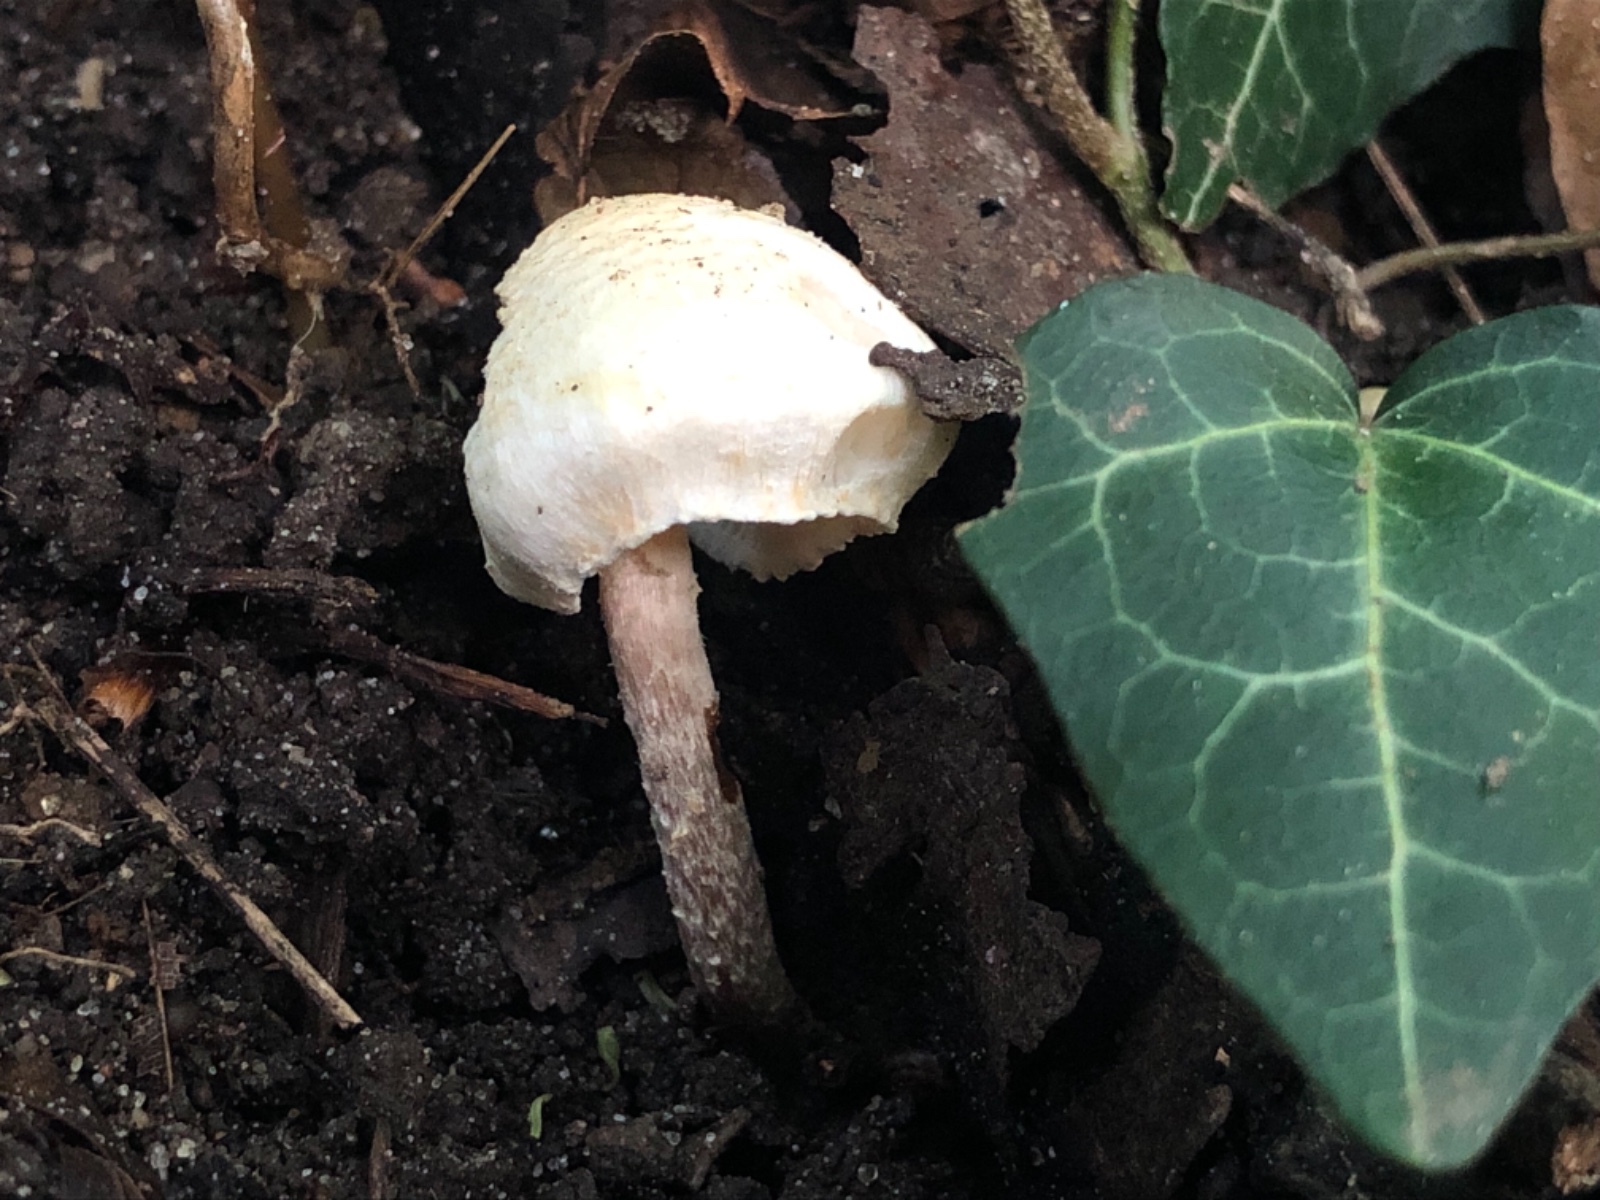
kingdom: Fungi
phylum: Basidiomycota
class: Agaricomycetes
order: Agaricales
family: Agaricaceae
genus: Lepiota
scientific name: Lepiota subalba
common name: hvidlig parasolhat
